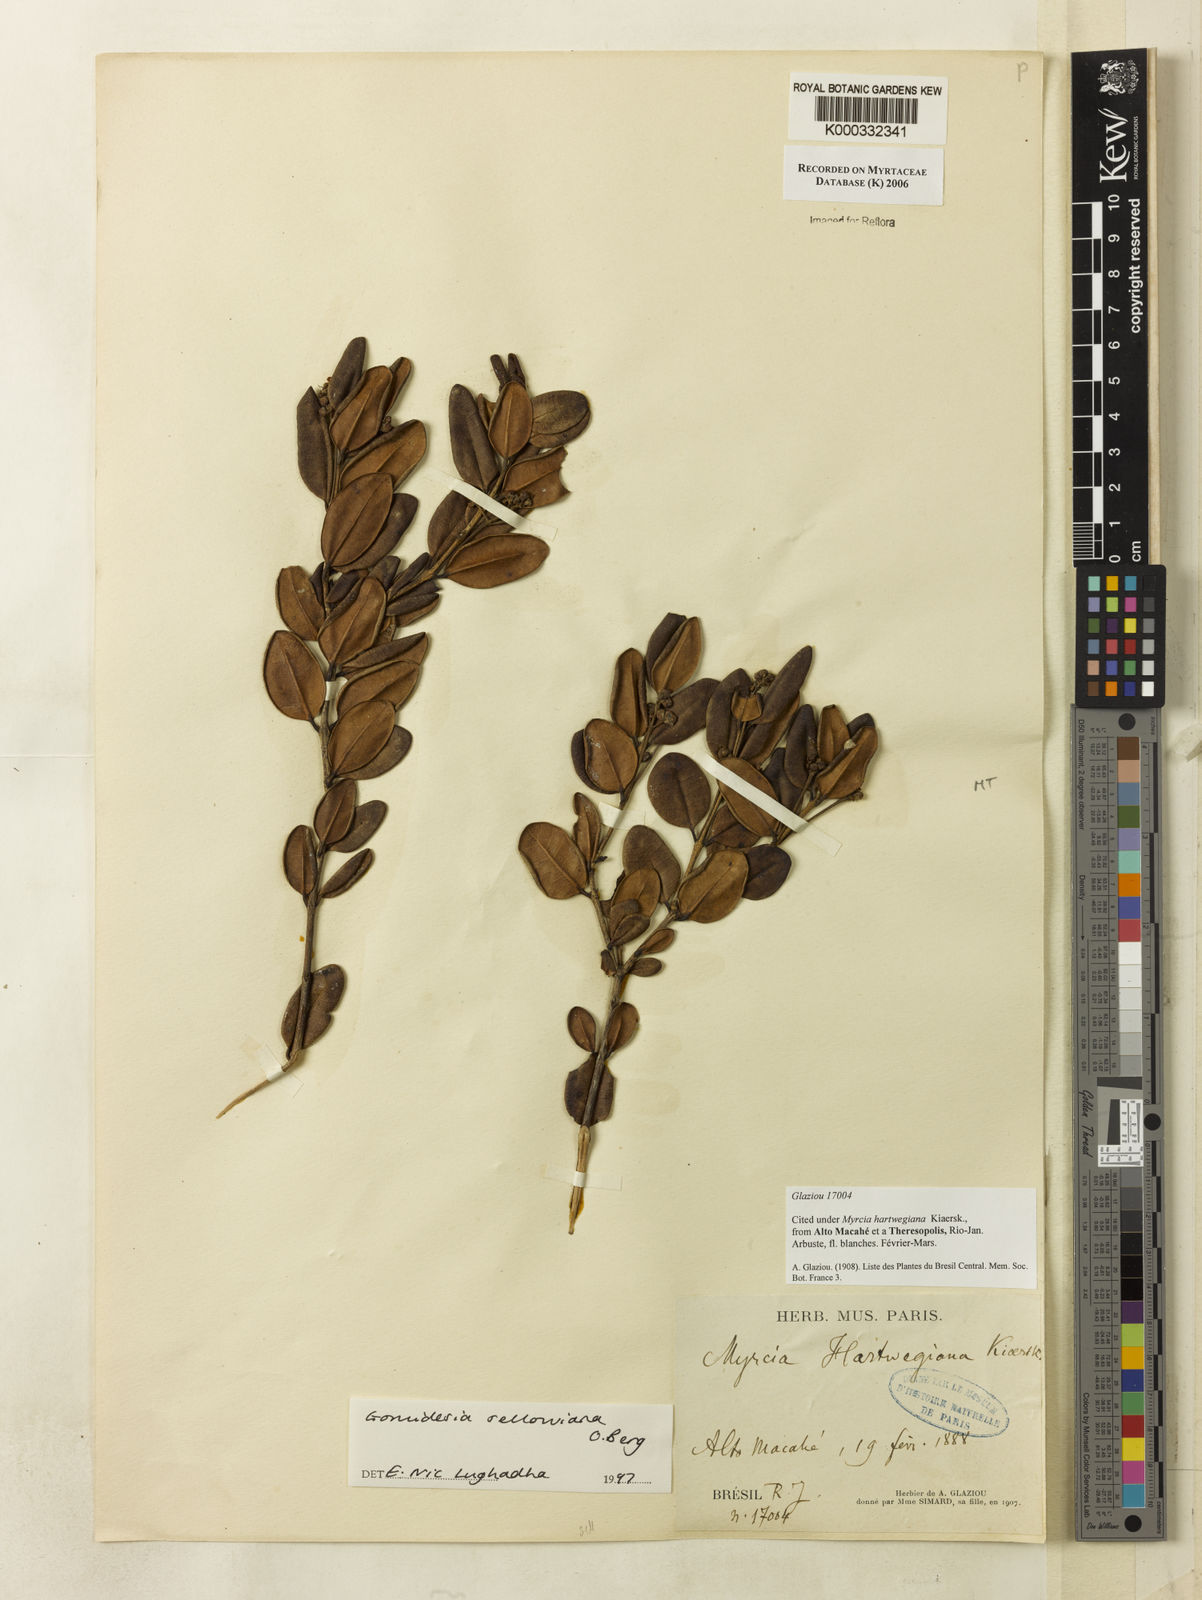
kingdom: Plantae
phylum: Tracheophyta
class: Magnoliopsida
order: Myrtales
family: Myrtaceae
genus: Myrcia
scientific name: Myrcia hartwegiana
